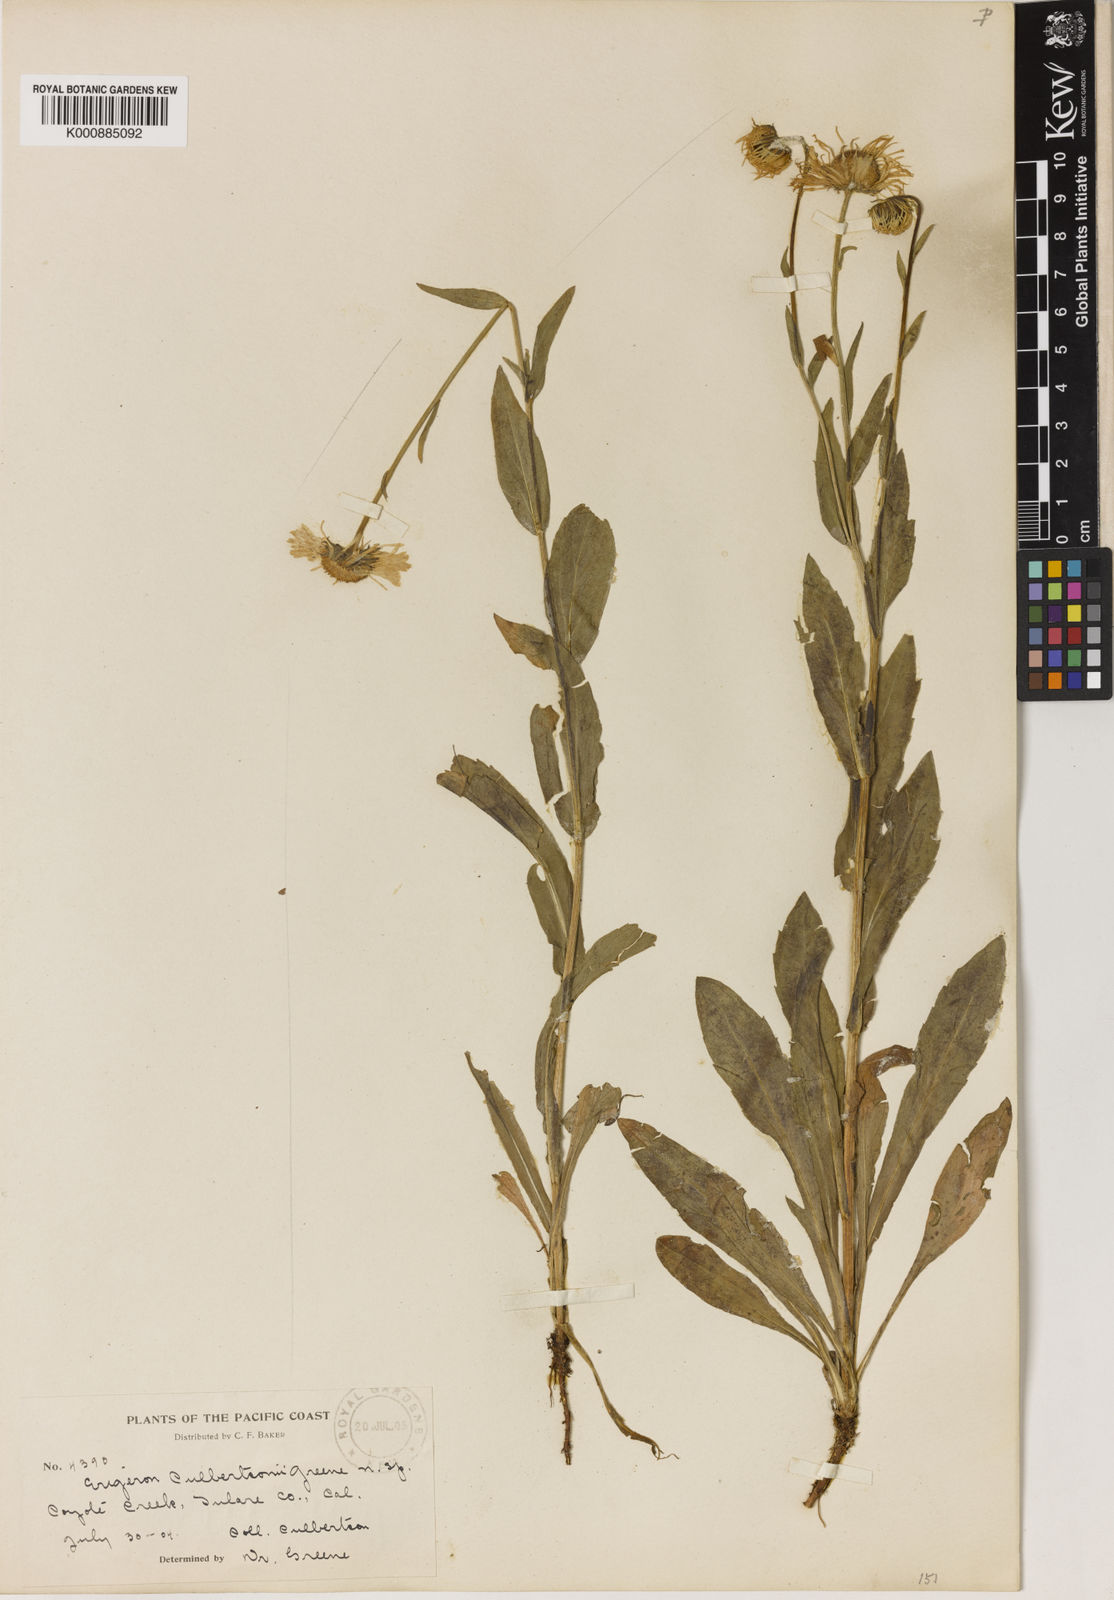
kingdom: Plantae
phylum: Tracheophyta
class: Magnoliopsida
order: Asterales
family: Asteraceae
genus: Erigeron
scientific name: Erigeron
